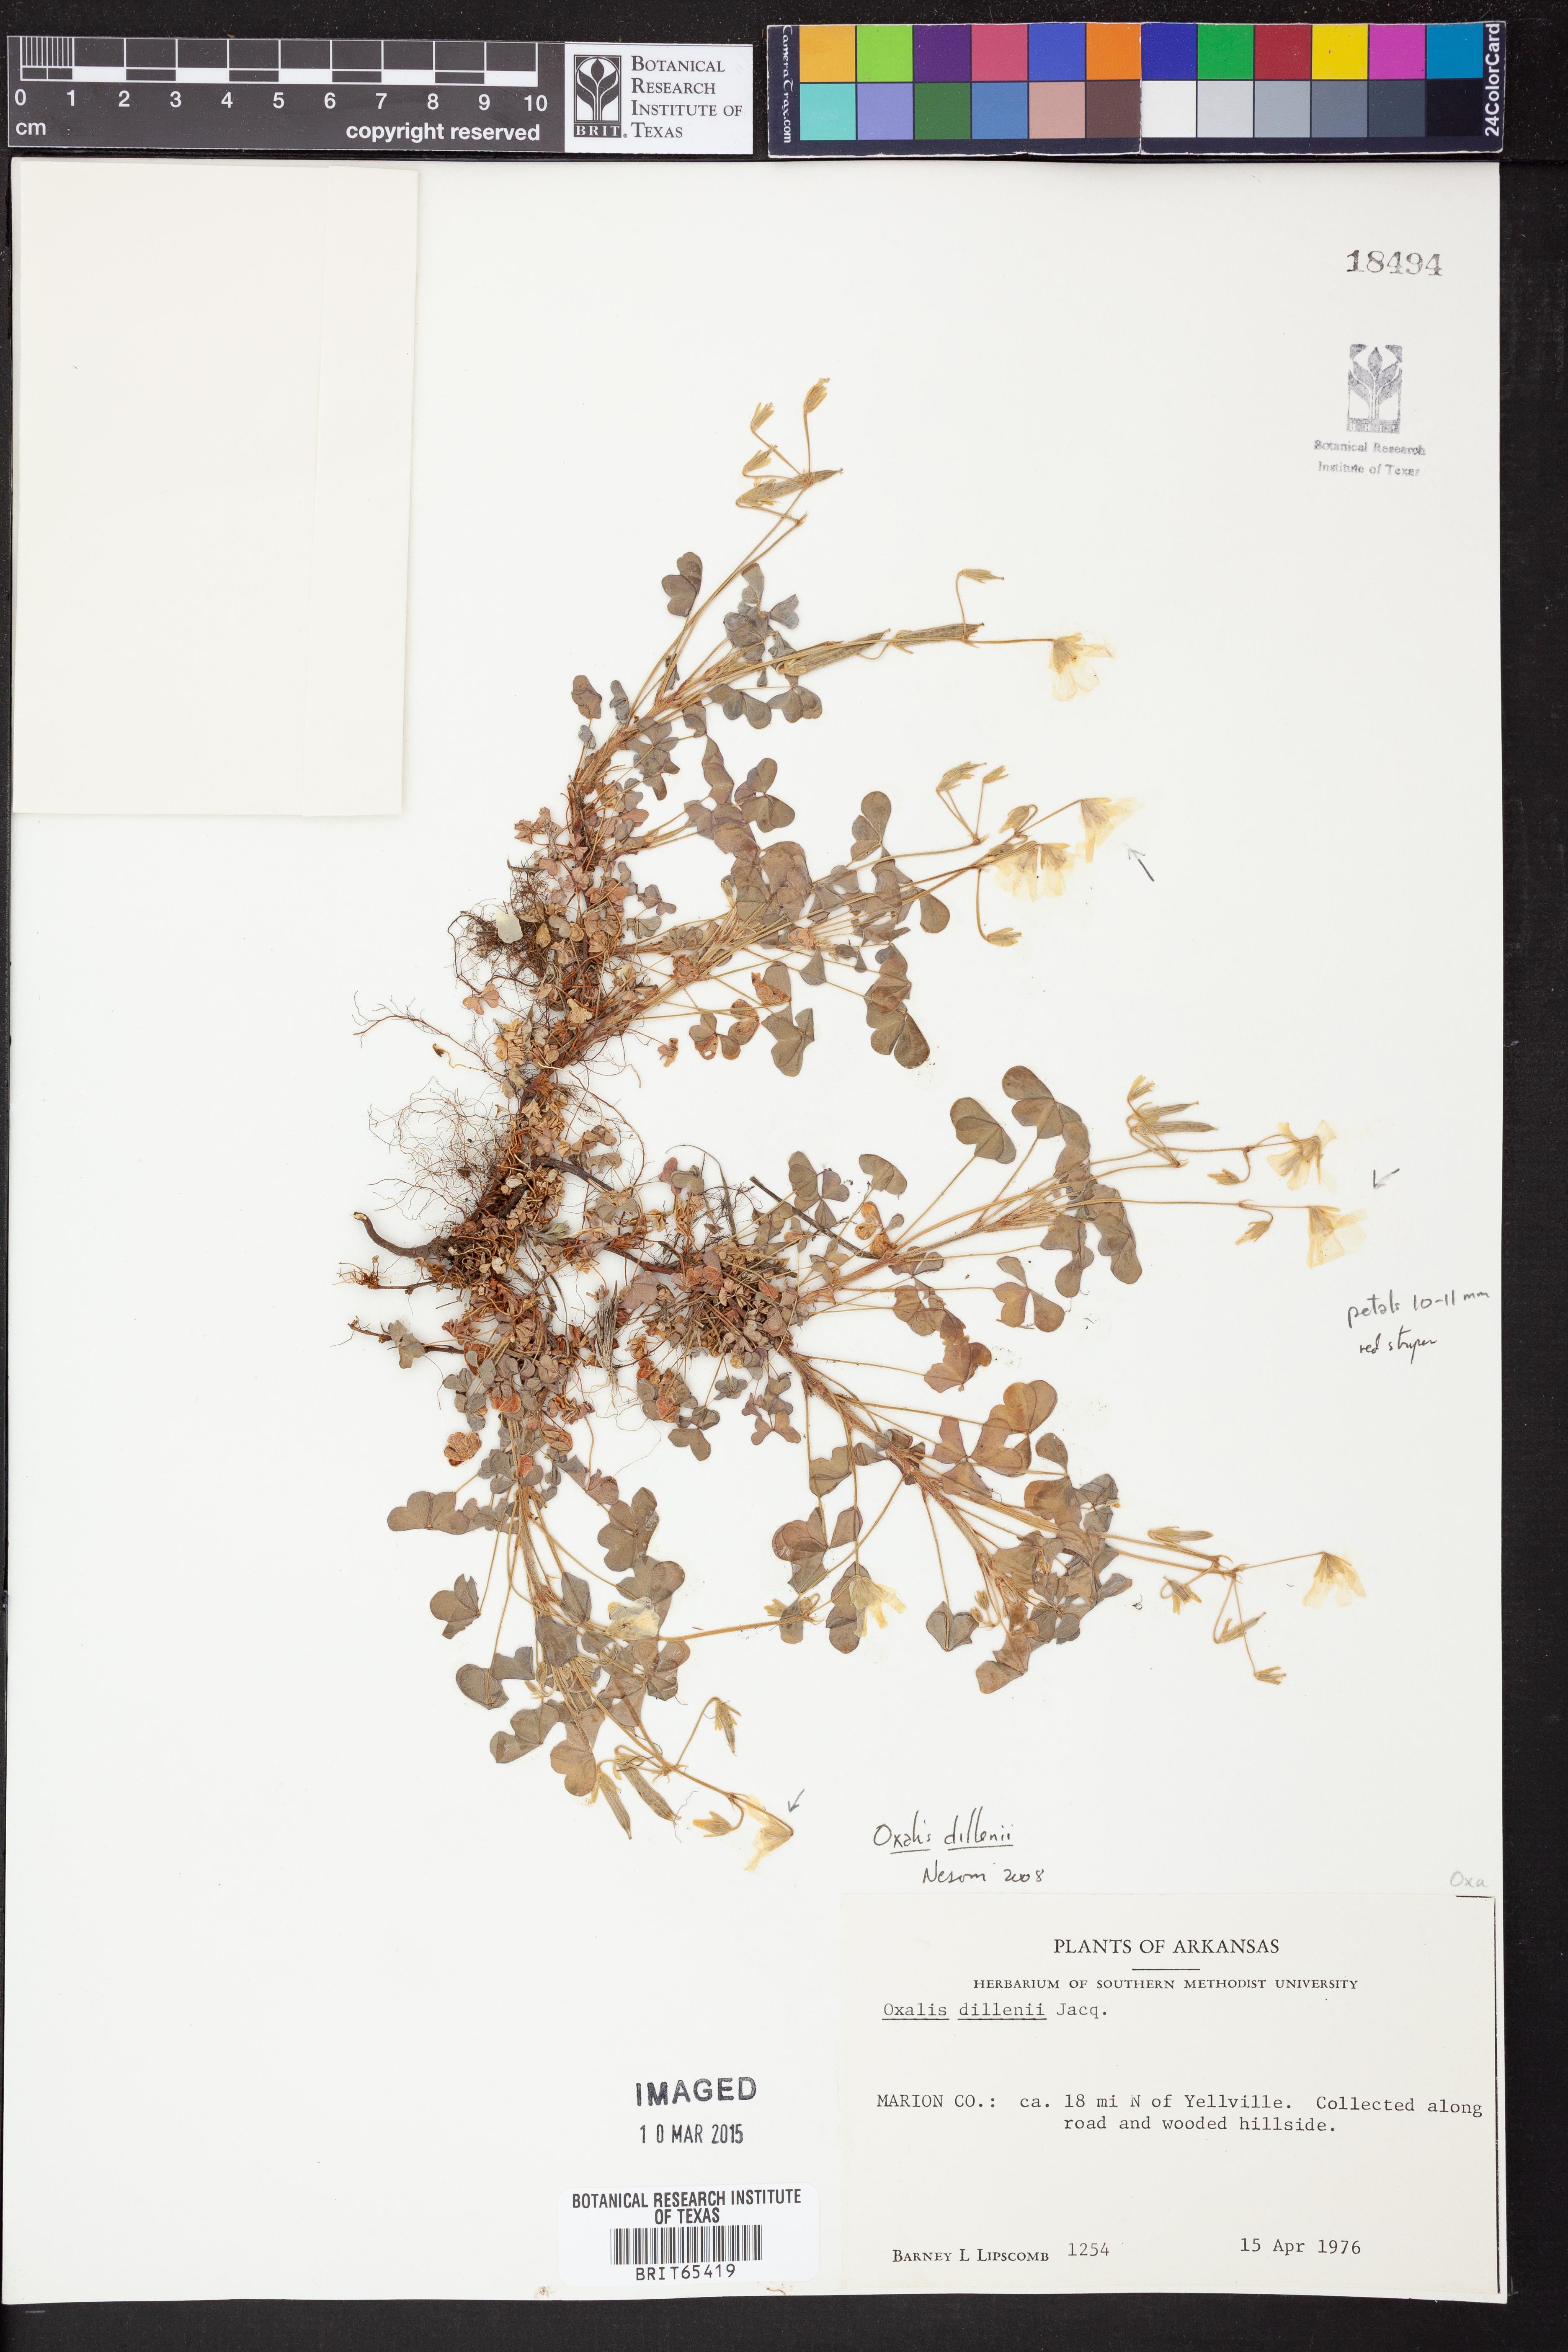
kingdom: Plantae
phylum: Tracheophyta
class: Magnoliopsida
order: Oxalidales
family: Oxalidaceae
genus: Oxalis
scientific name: Oxalis dillenii
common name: Sussex yellow-sorrel
